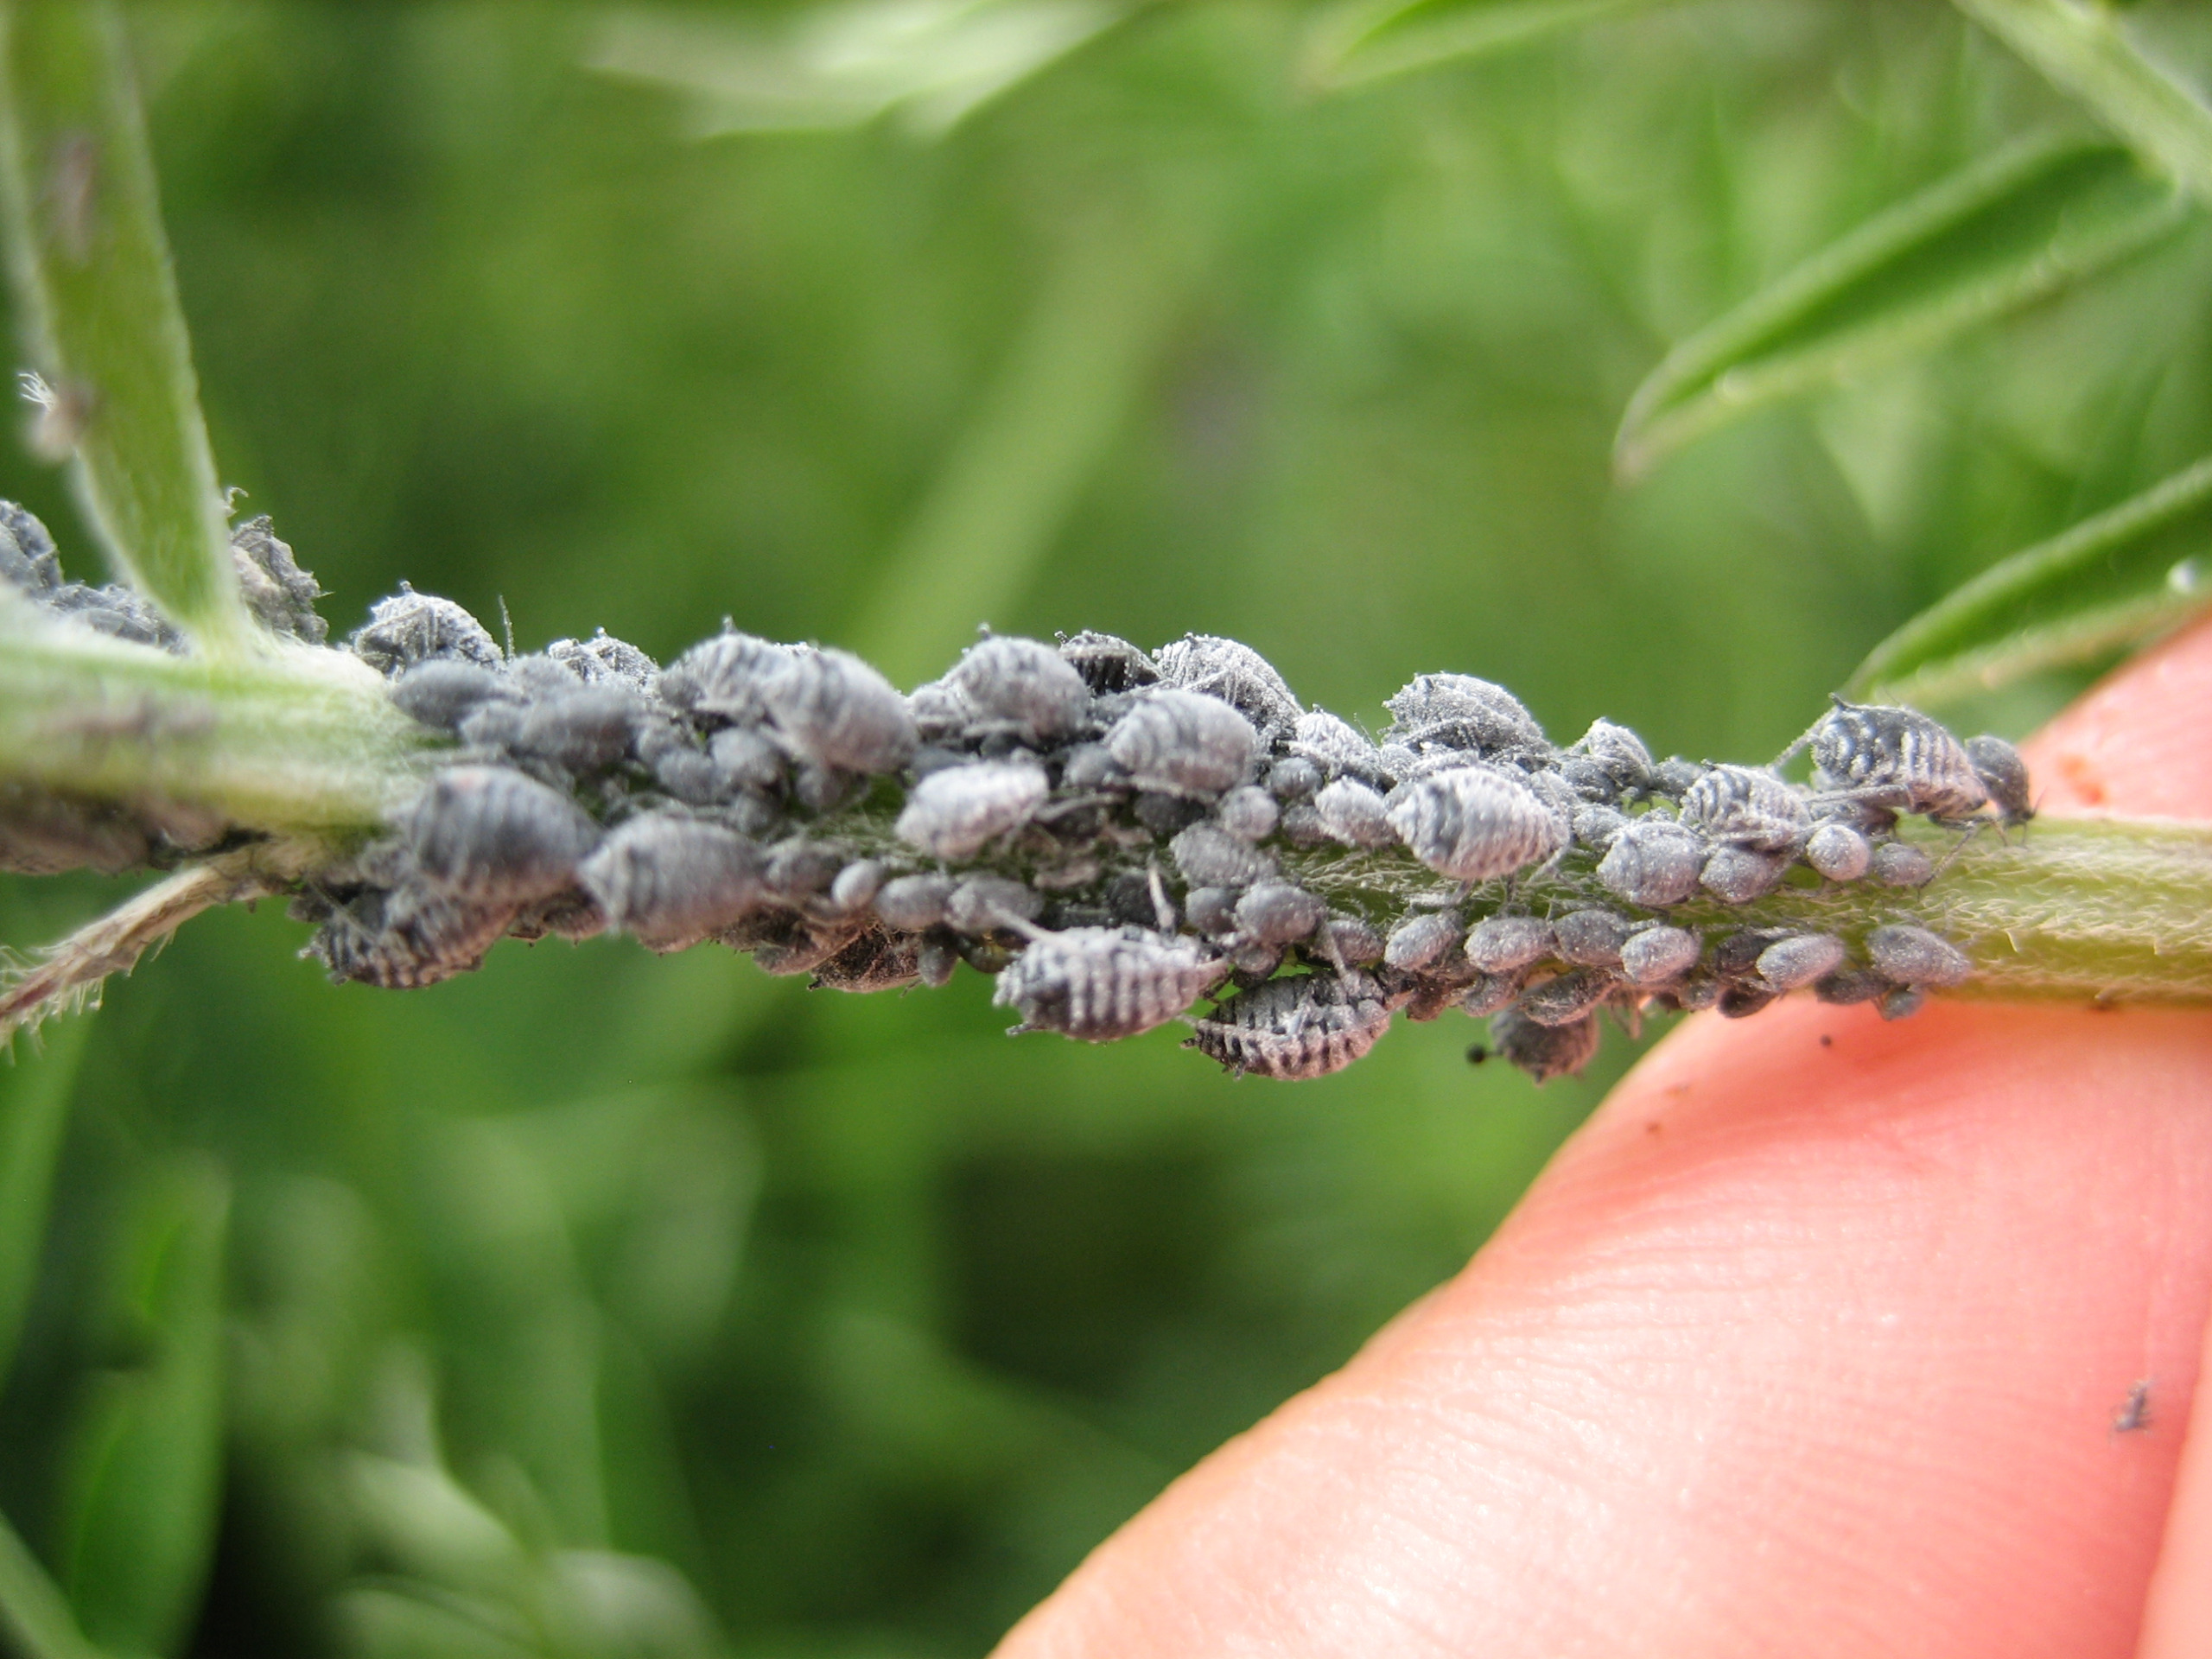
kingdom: Animalia
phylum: Arthropoda
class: Insecta
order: Hemiptera
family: Aphididae
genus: Aphis
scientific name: Aphis craccae
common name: Musevikkebladlus
